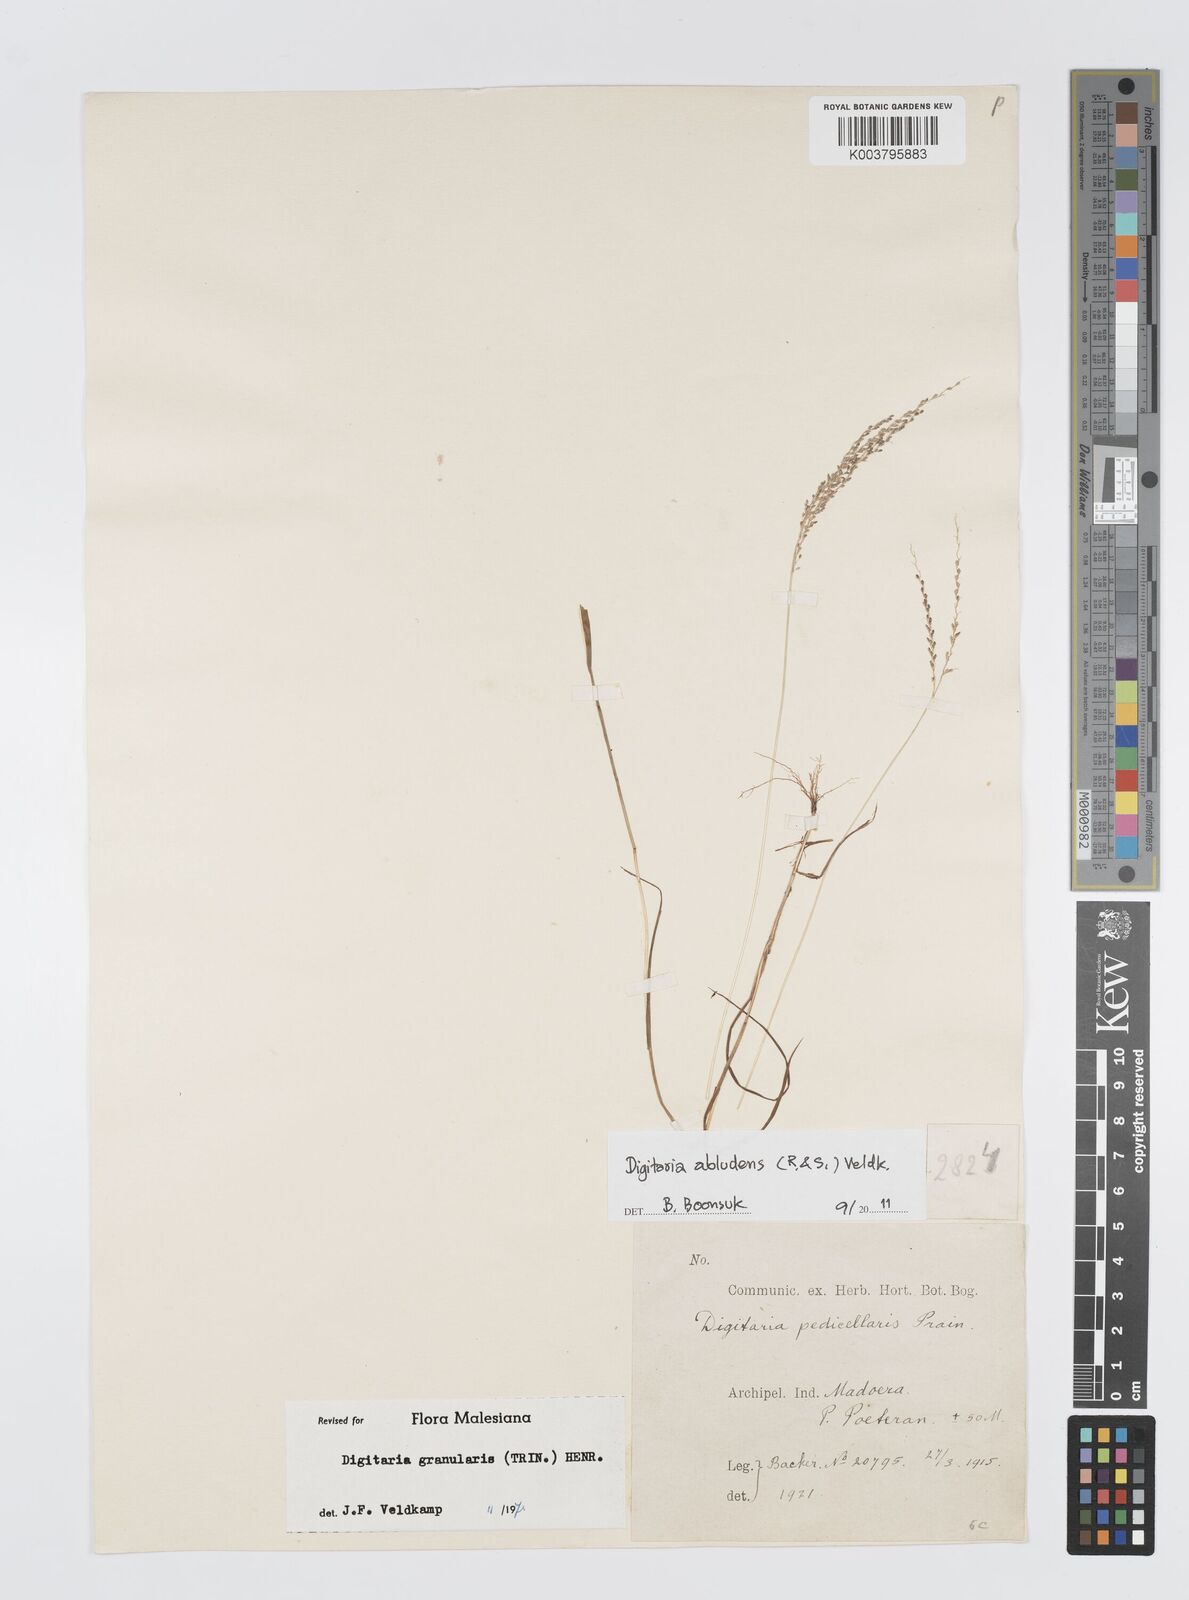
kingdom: Plantae
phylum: Tracheophyta
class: Liliopsida
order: Poales
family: Poaceae
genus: Digitaria
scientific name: Digitaria abludens
